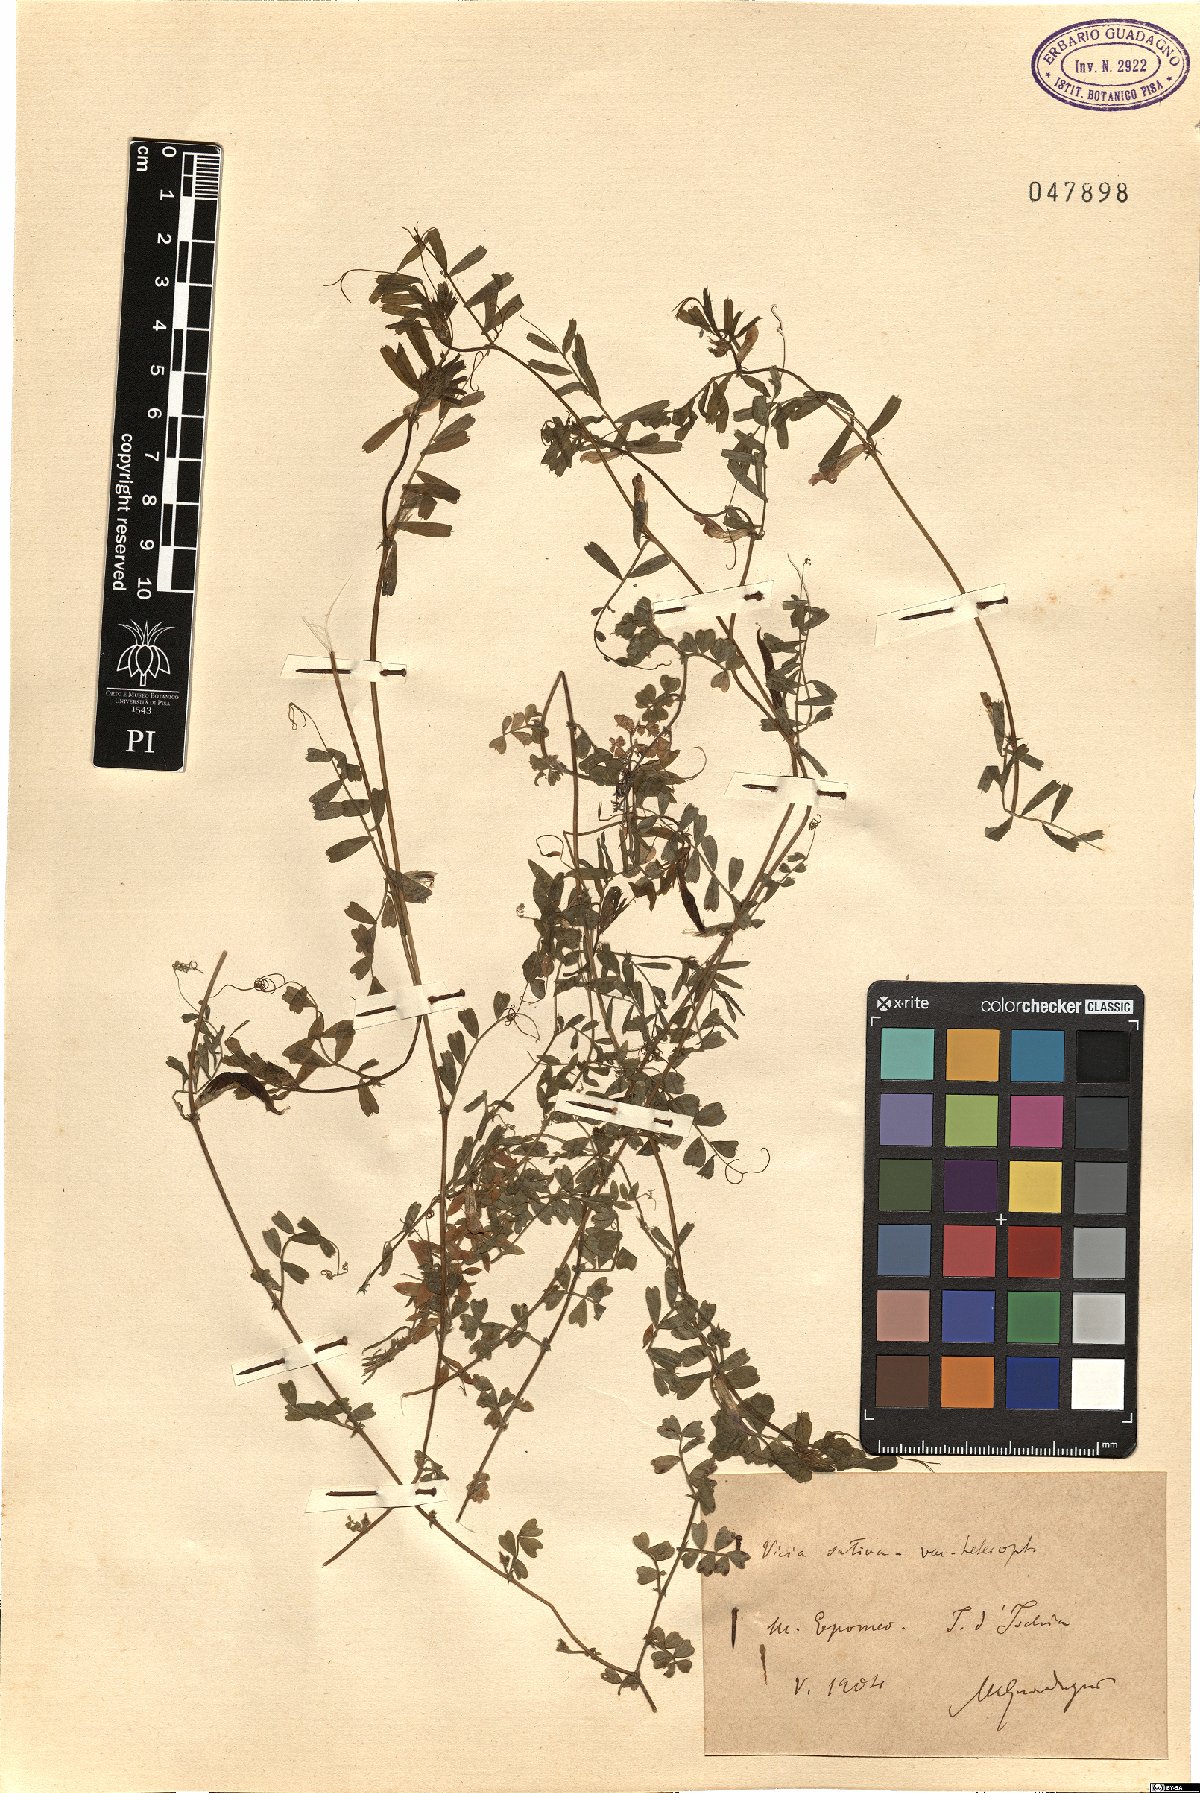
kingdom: Plantae
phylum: Tracheophyta
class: Magnoliopsida
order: Fabales
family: Fabaceae
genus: Vicia
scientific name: Vicia sativa
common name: Garden vetch
